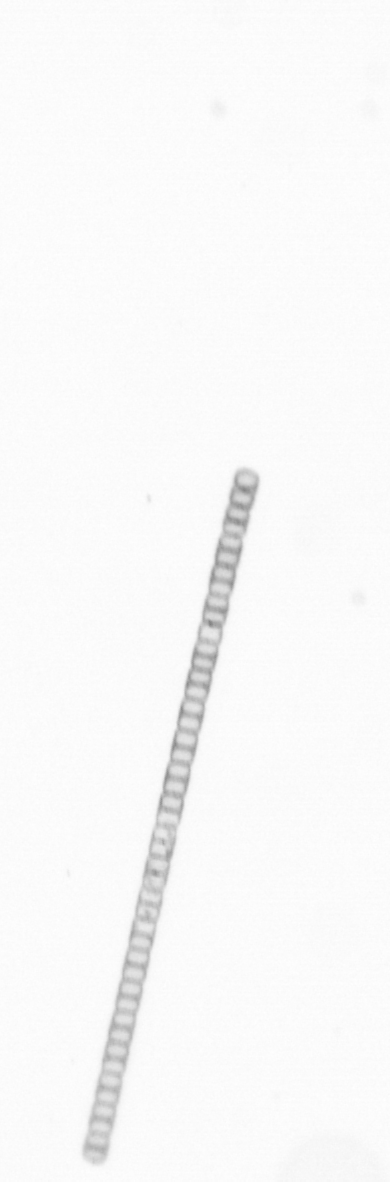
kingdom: Chromista
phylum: Ochrophyta
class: Bacillariophyceae
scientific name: Bacillariophyceae
